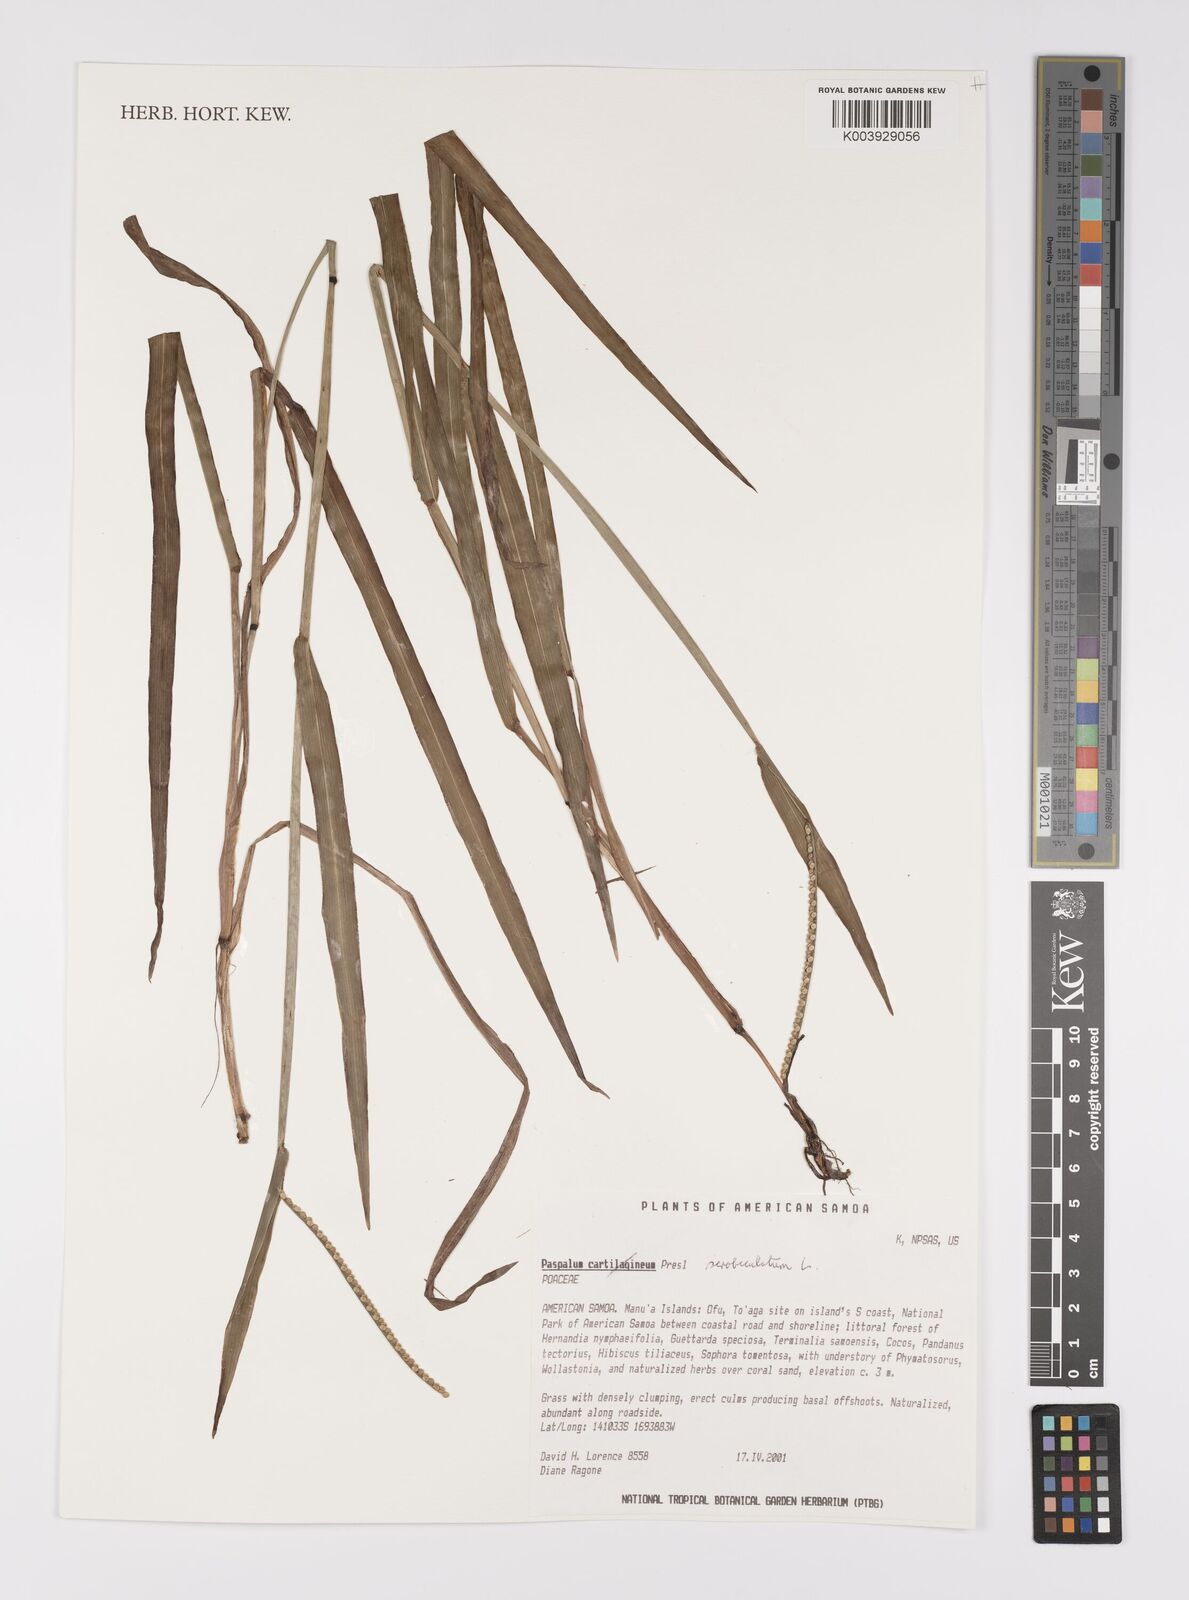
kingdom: Plantae
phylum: Tracheophyta
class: Liliopsida
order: Poales
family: Poaceae
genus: Paspalum
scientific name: Paspalum scrobiculatum
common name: Kodo millet
